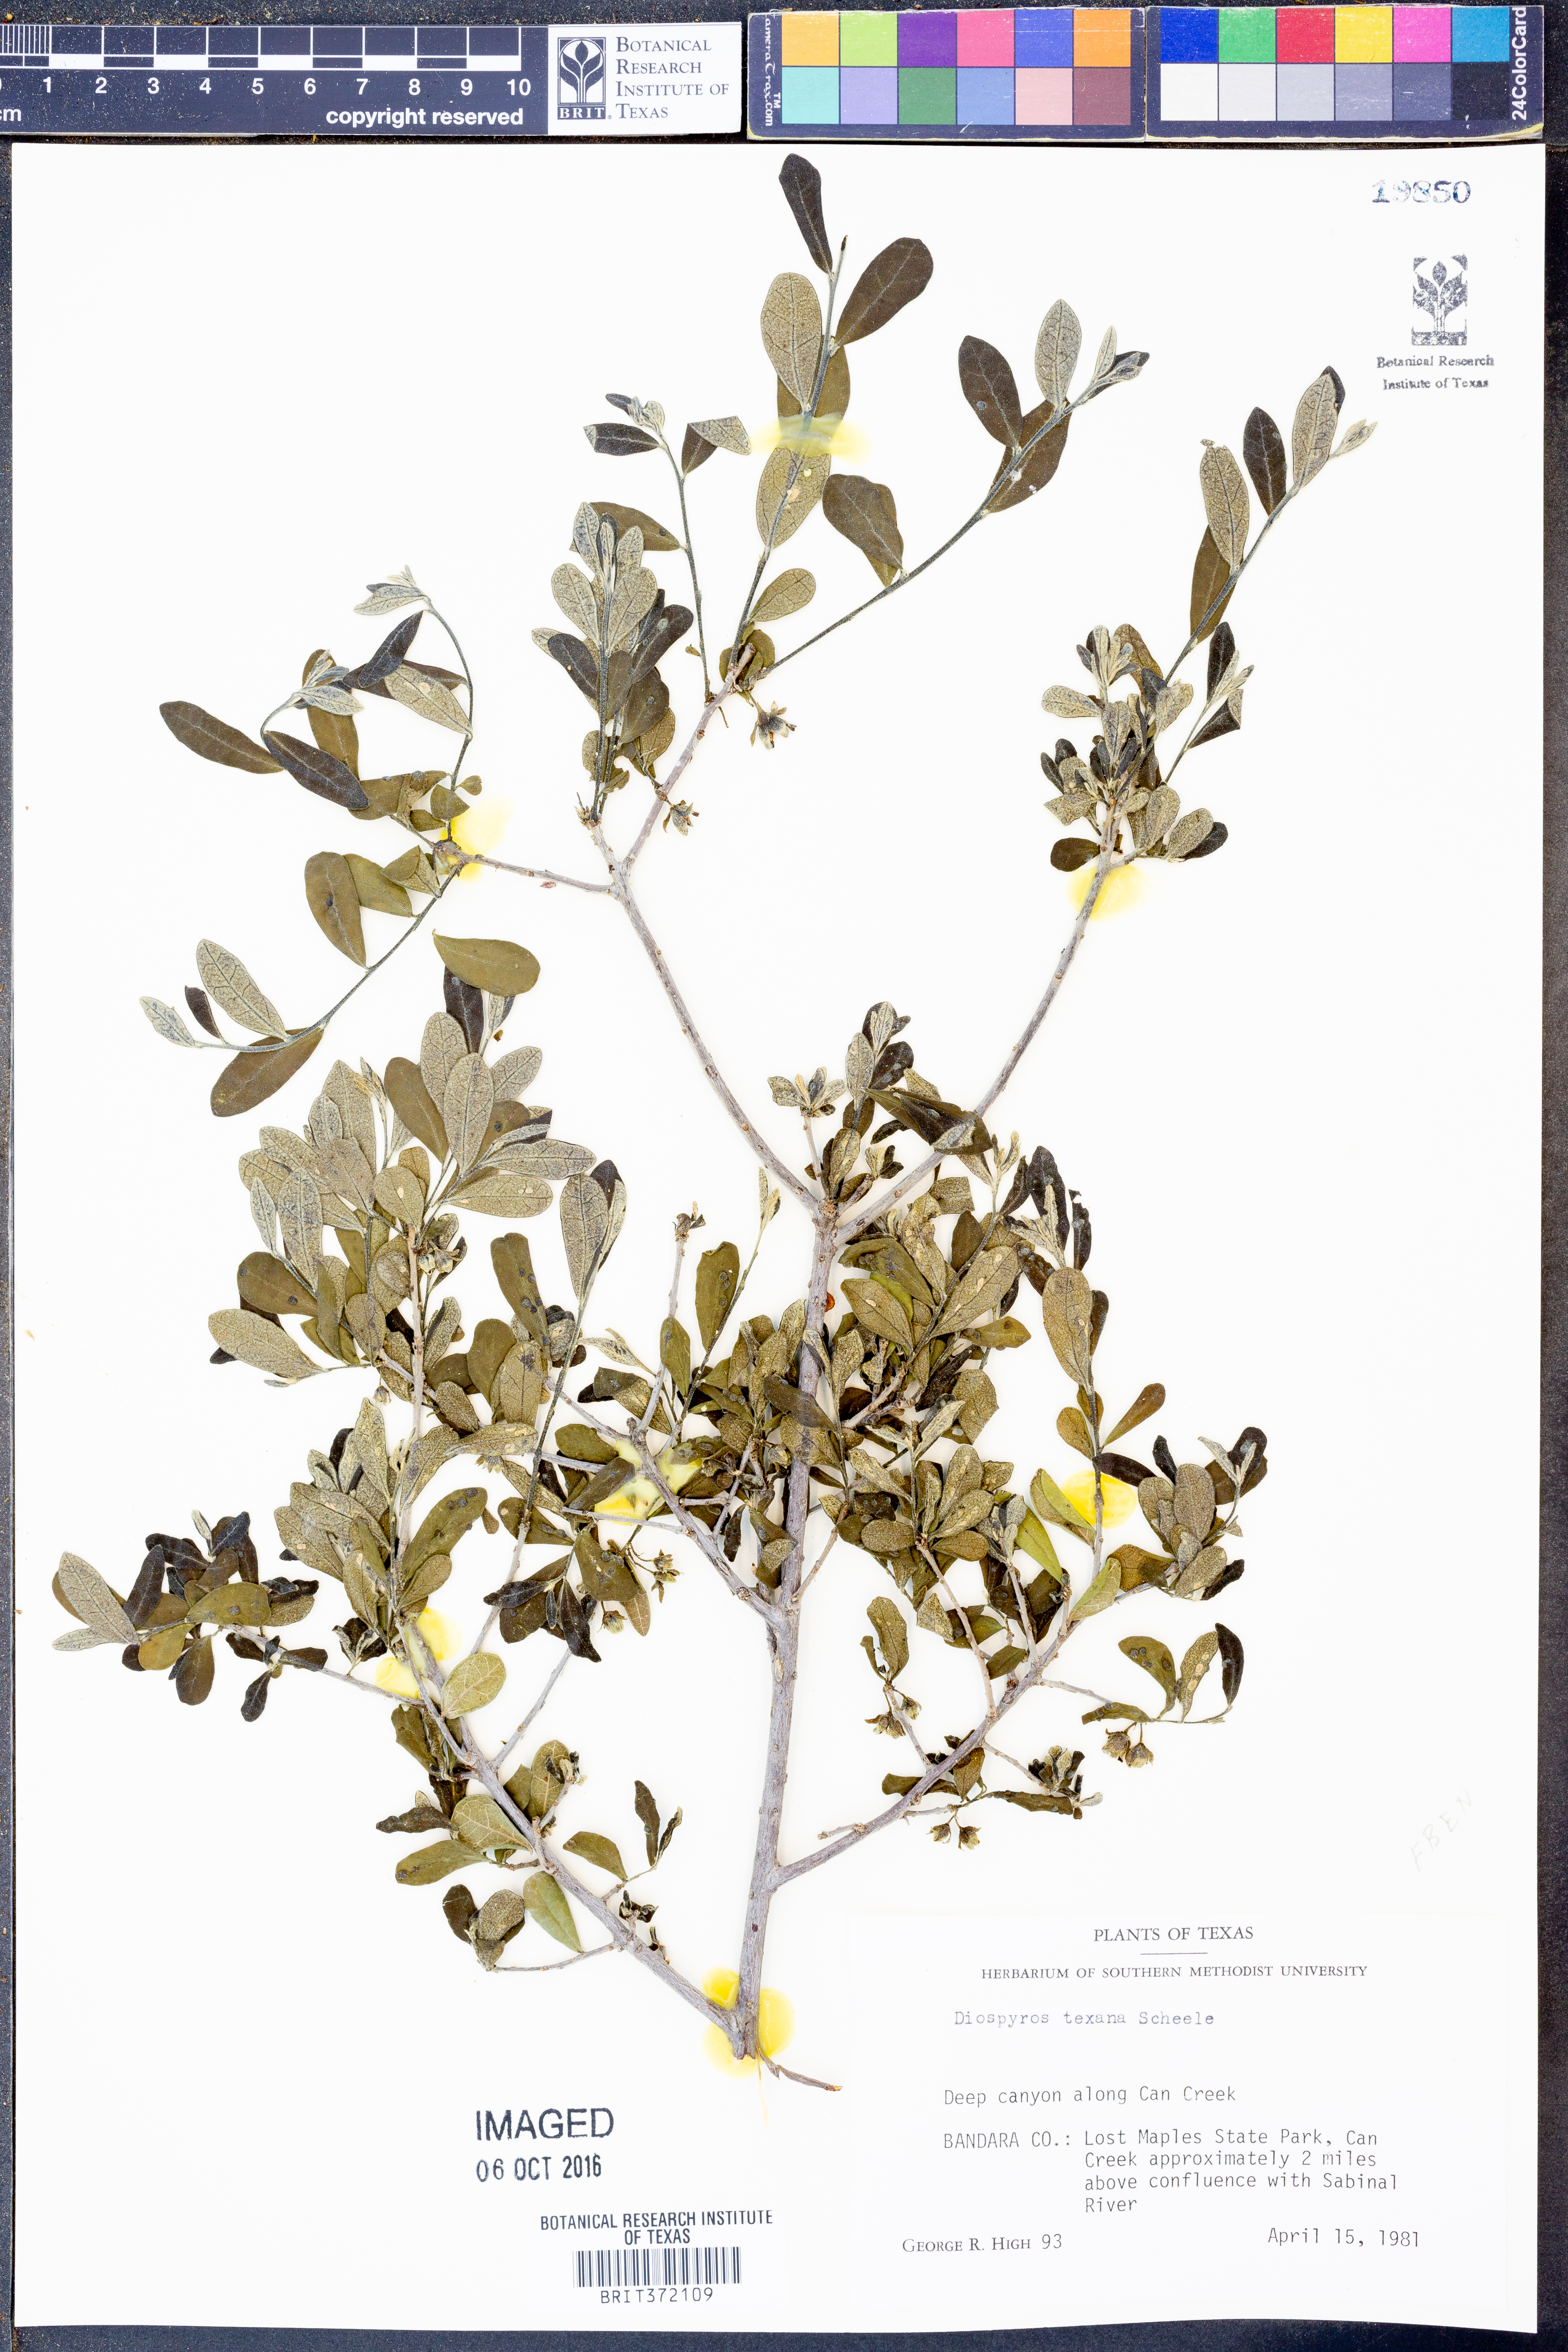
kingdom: Plantae
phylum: Tracheophyta
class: Magnoliopsida
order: Ericales
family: Ebenaceae
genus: Diospyros
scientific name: Diospyros texana
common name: Texas persimmon
